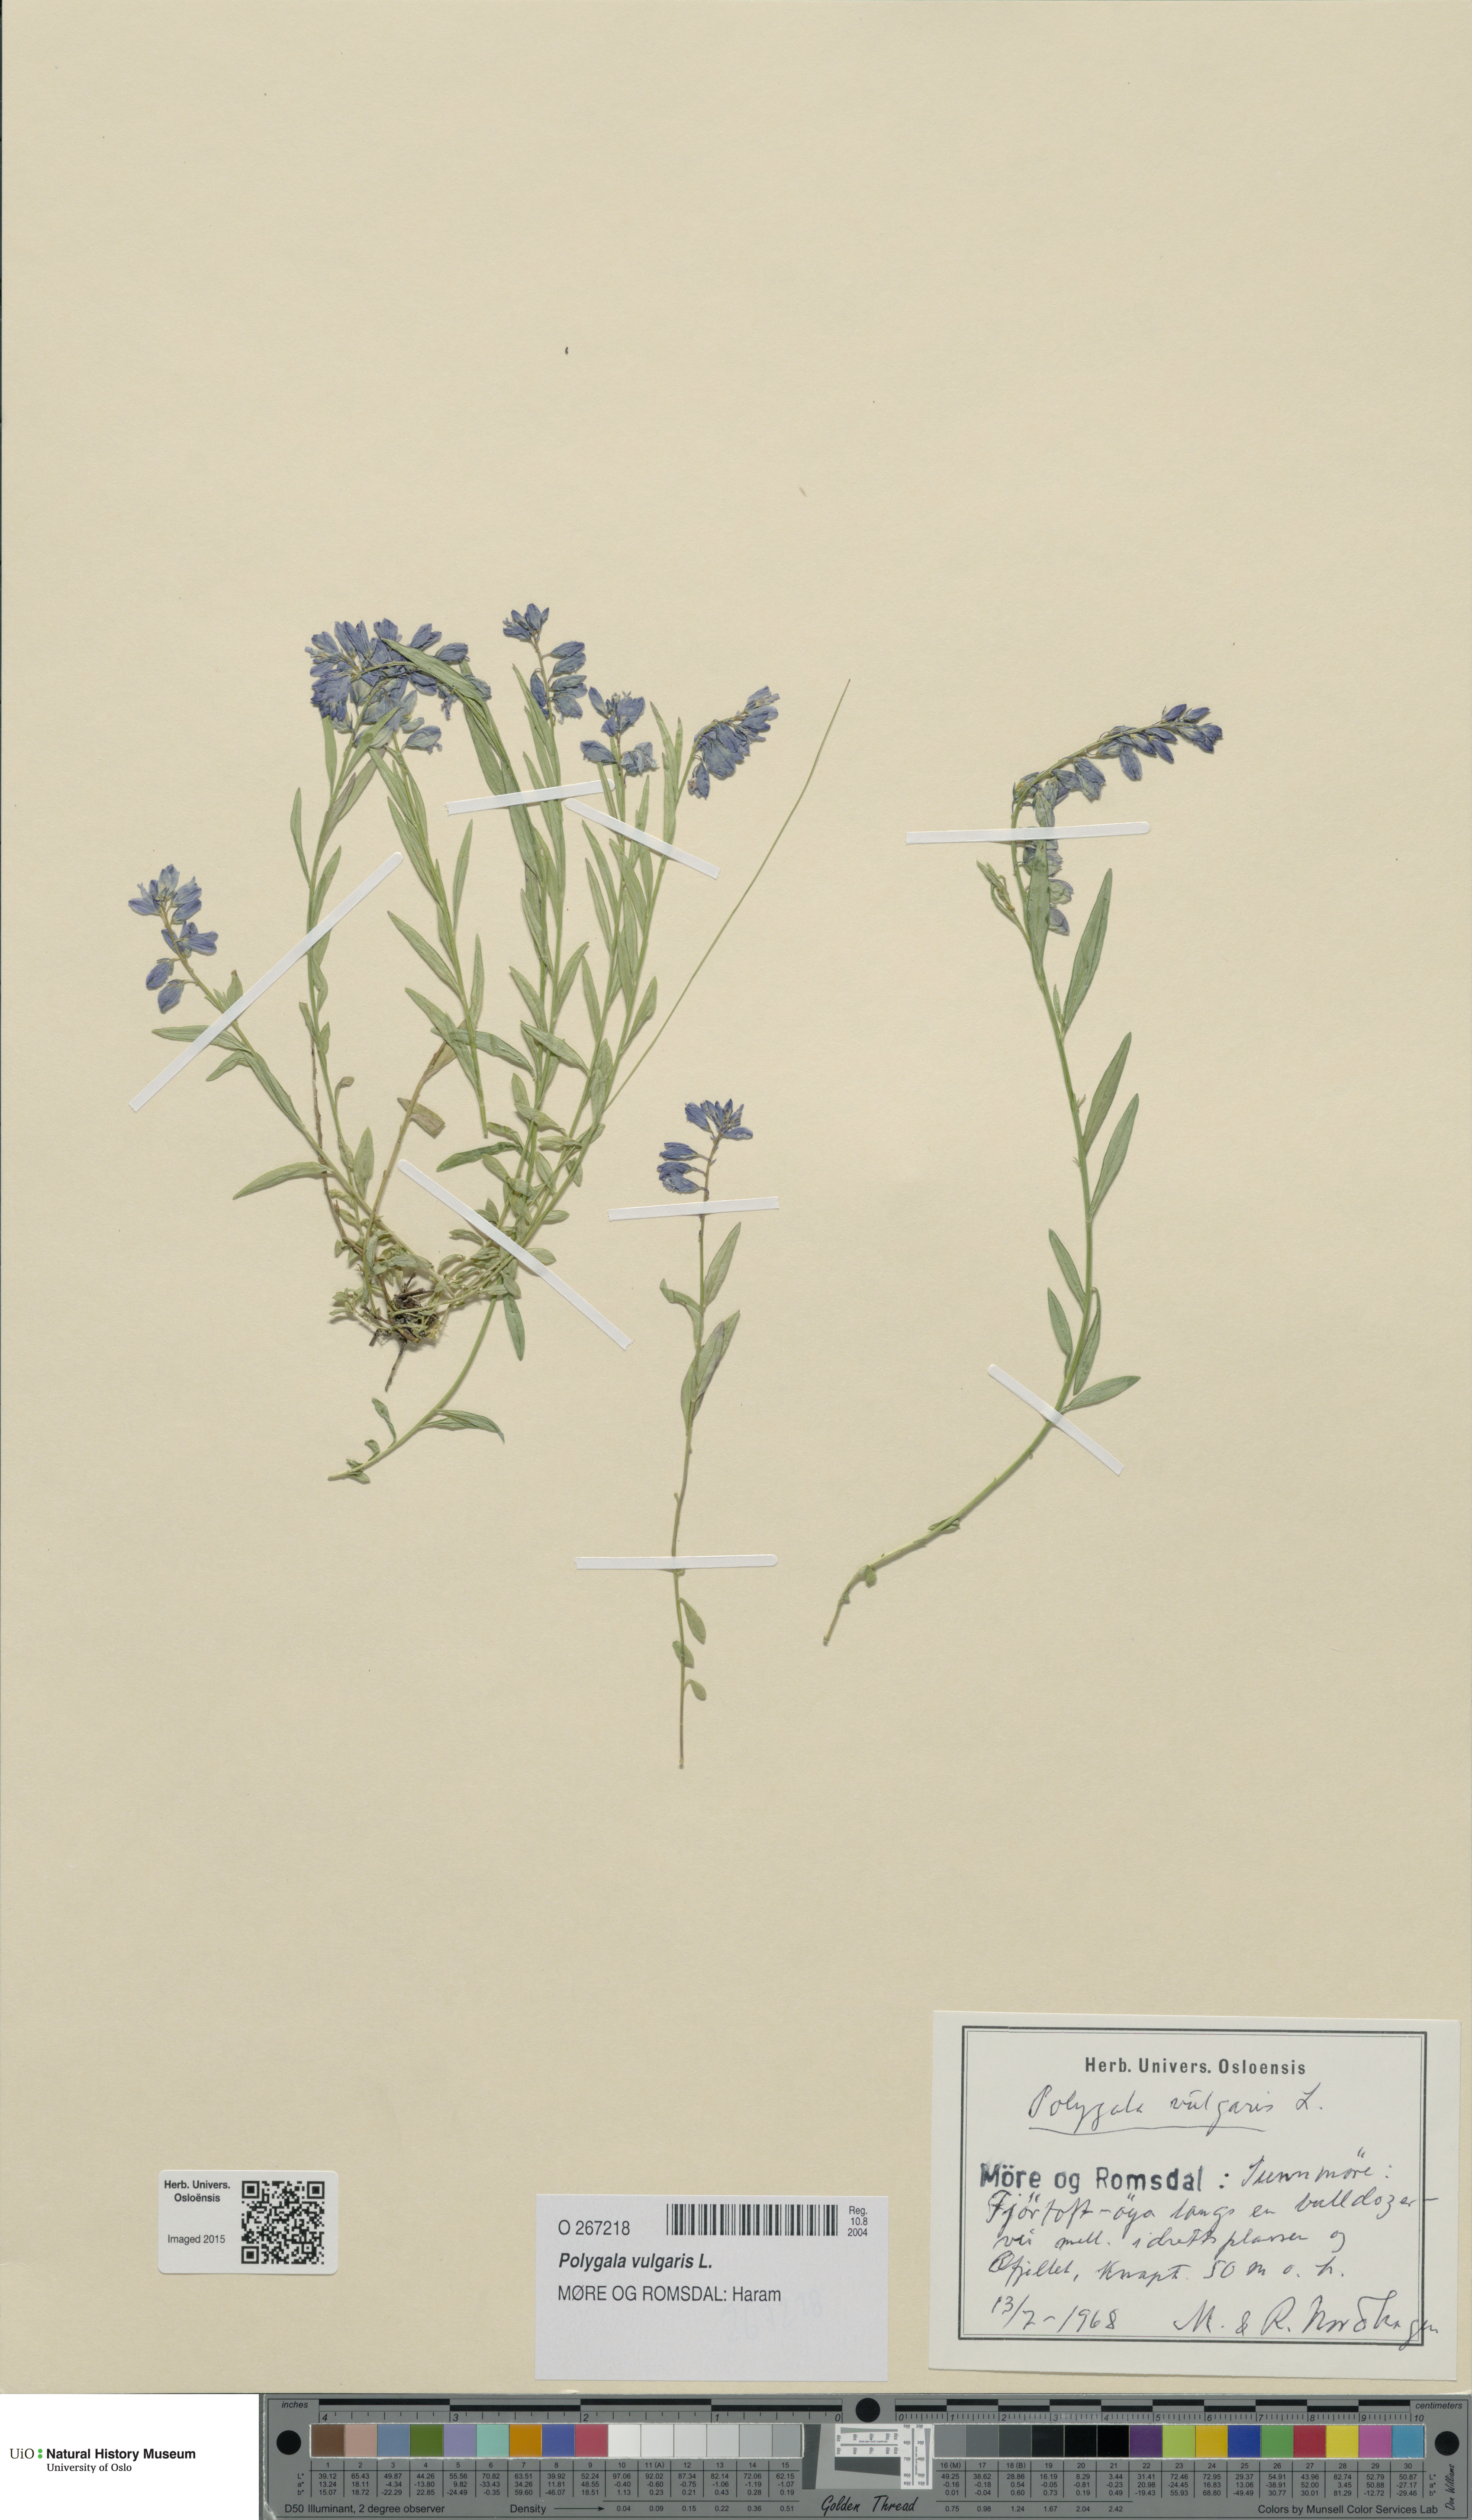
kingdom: Plantae
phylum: Tracheophyta
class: Magnoliopsida
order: Fabales
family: Polygalaceae
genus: Polygala
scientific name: Polygala vulgaris
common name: Common milkwort
